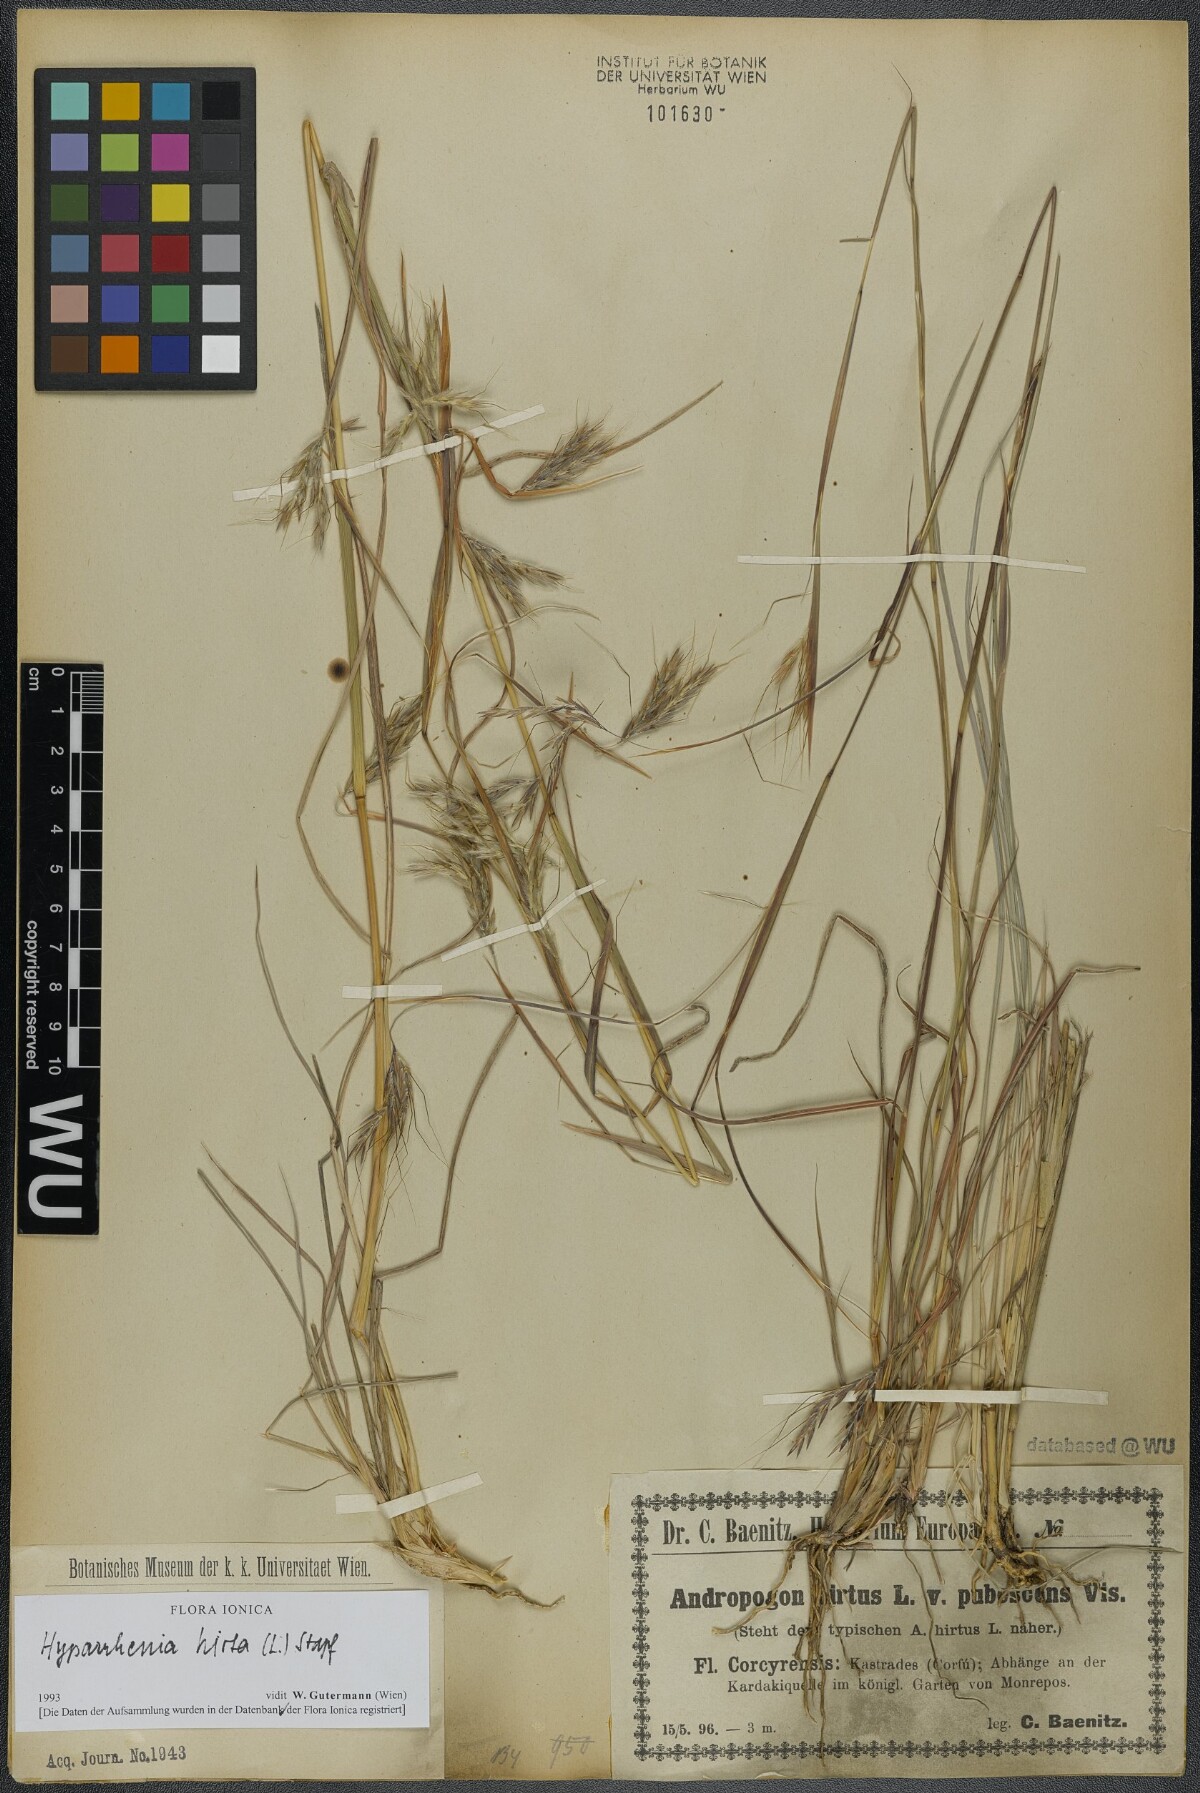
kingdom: Plantae
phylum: Tracheophyta
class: Liliopsida
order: Poales
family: Poaceae
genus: Hyparrhenia
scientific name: Hyparrhenia hirta
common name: Thatching grass
